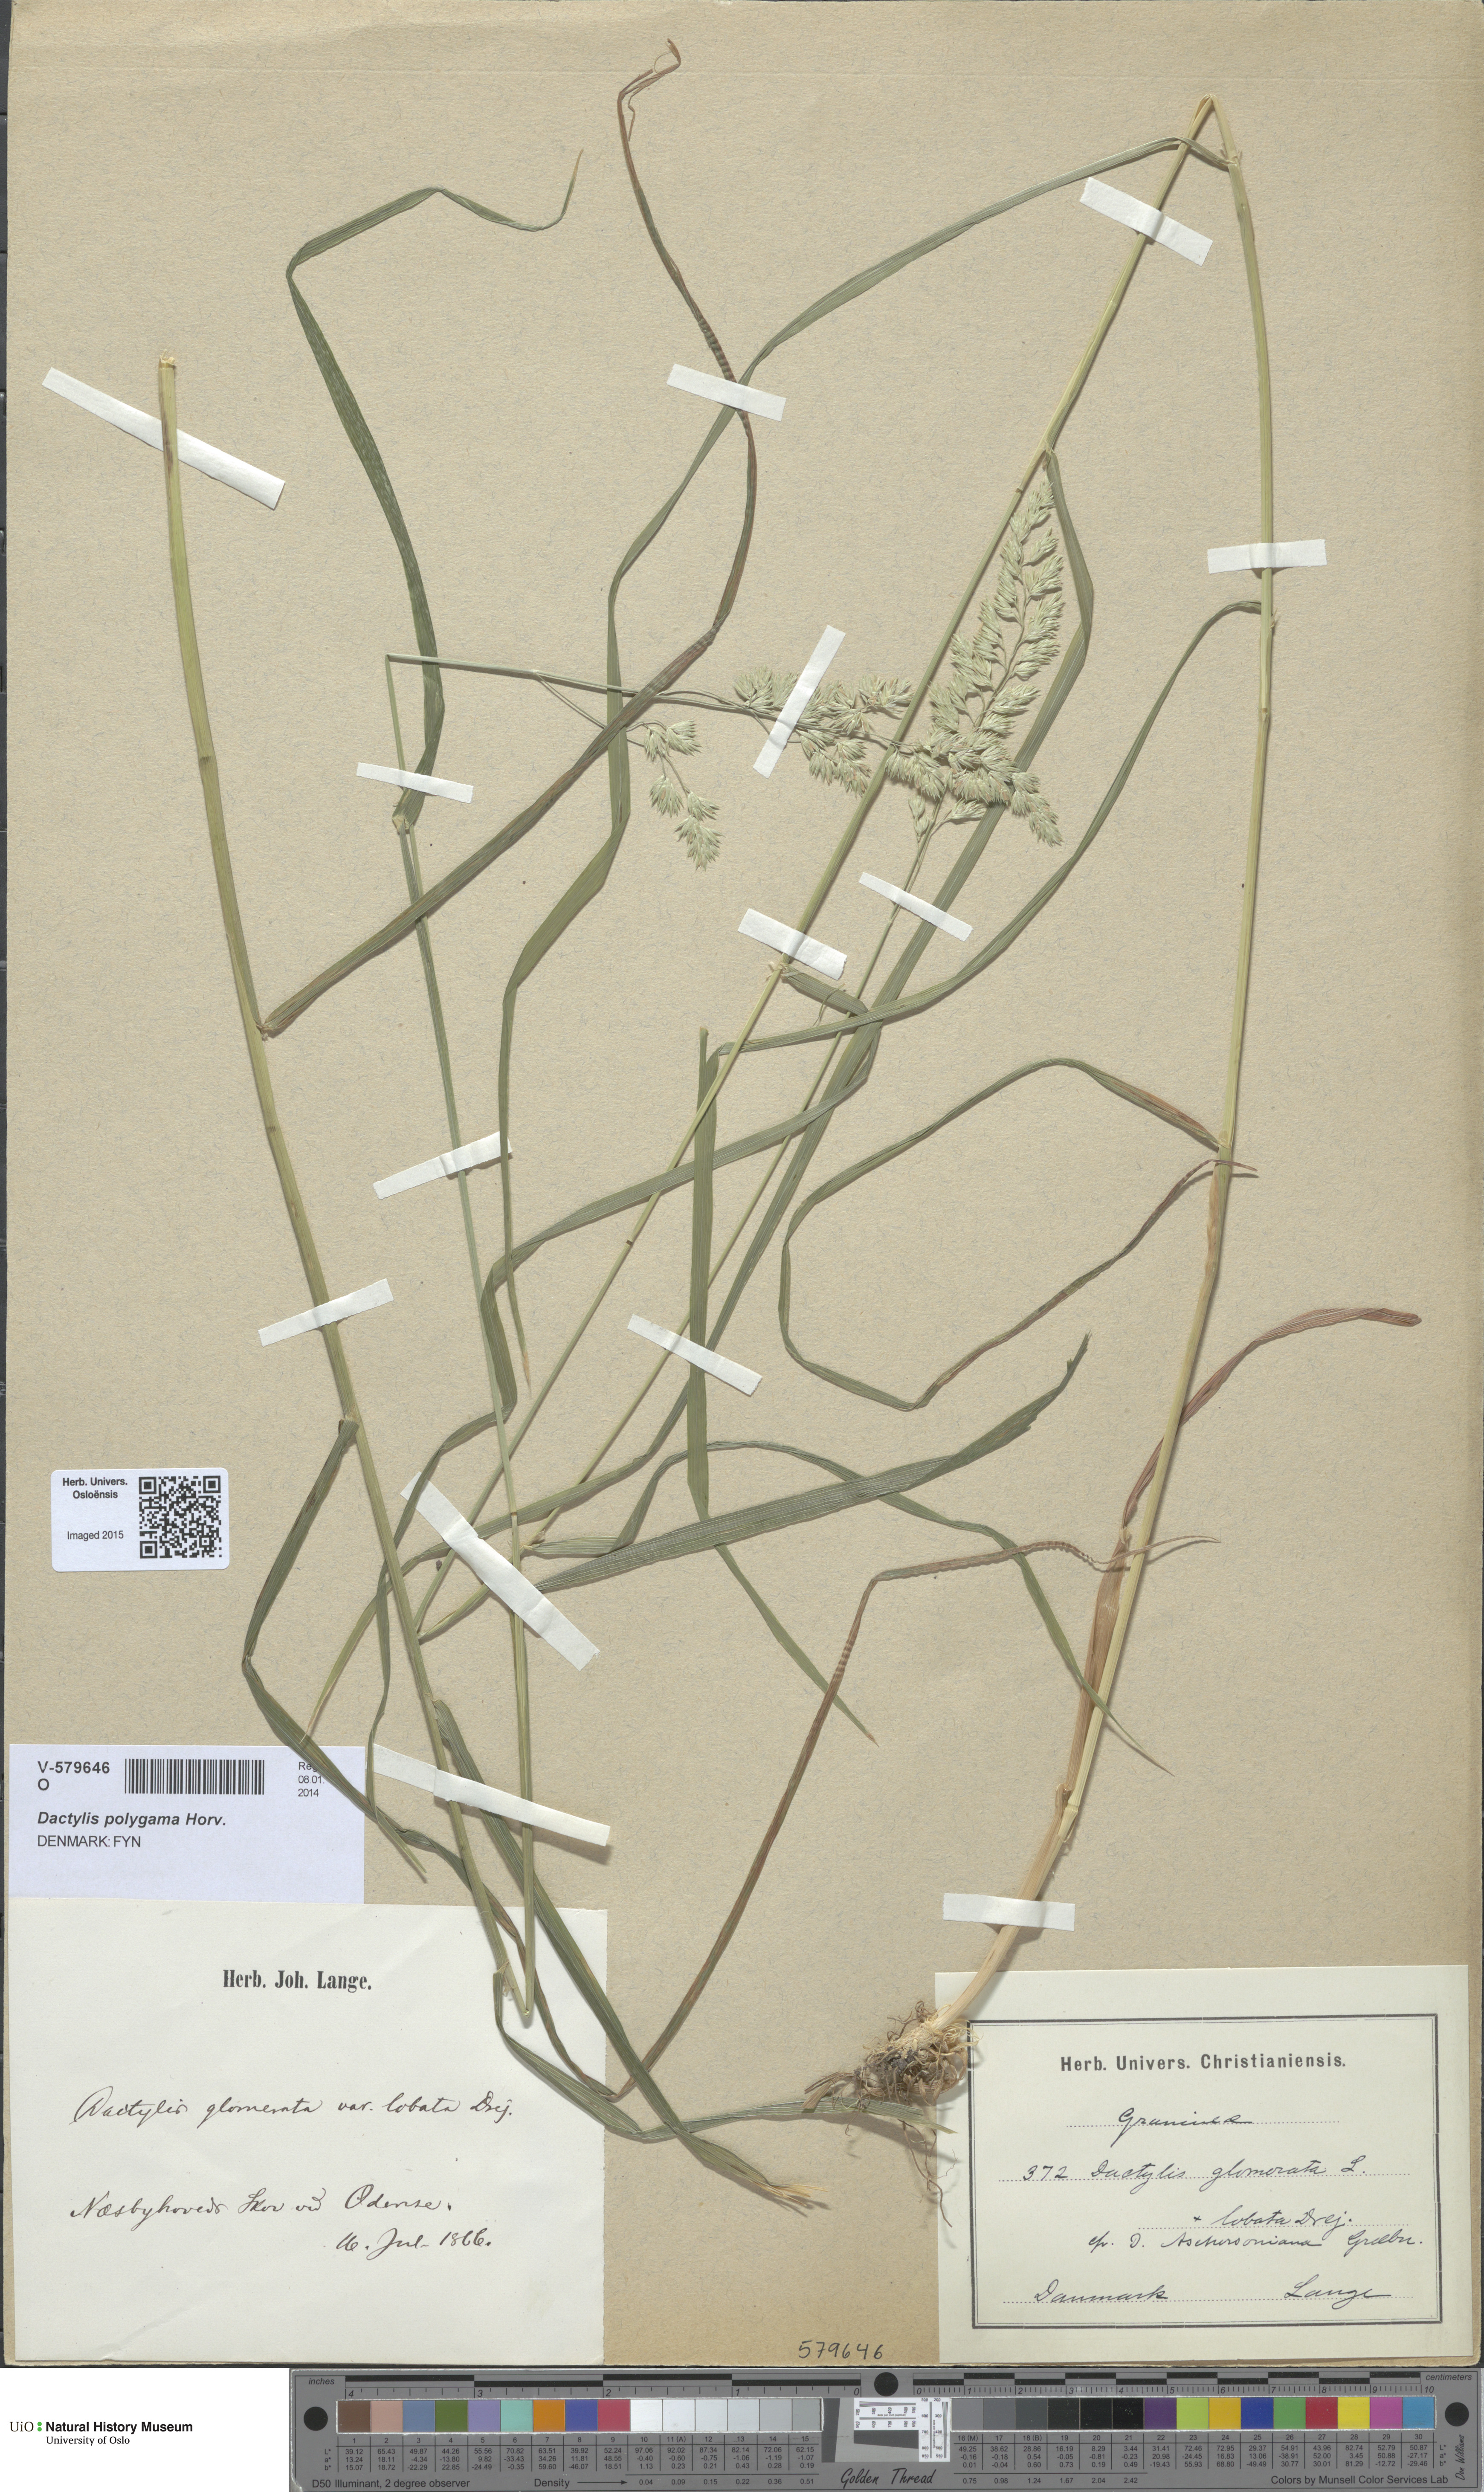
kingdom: Plantae
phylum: Tracheophyta
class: Liliopsida
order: Poales
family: Poaceae
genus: Dactylis
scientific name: Dactylis glomerata
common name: Orchardgrass
